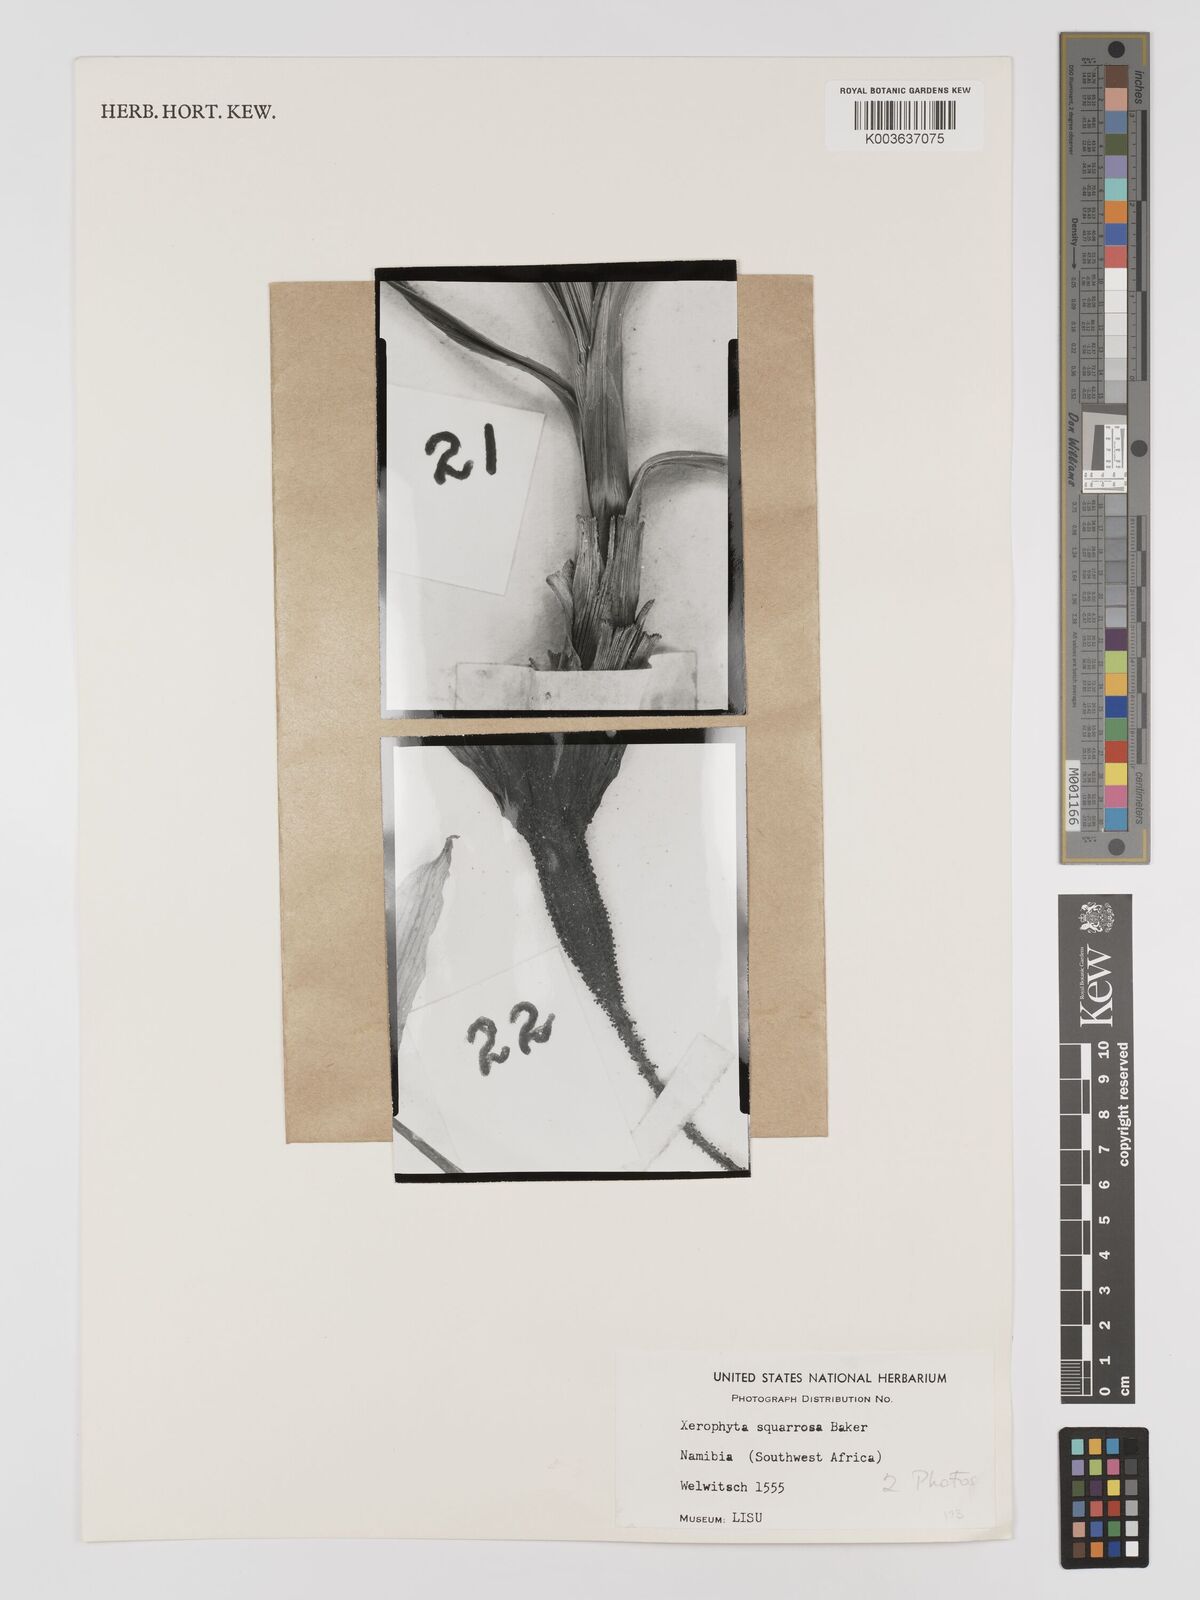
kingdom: Plantae
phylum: Tracheophyta
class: Liliopsida
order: Pandanales
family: Velloziaceae
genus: Xerophyta
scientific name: Xerophyta squarrosa
